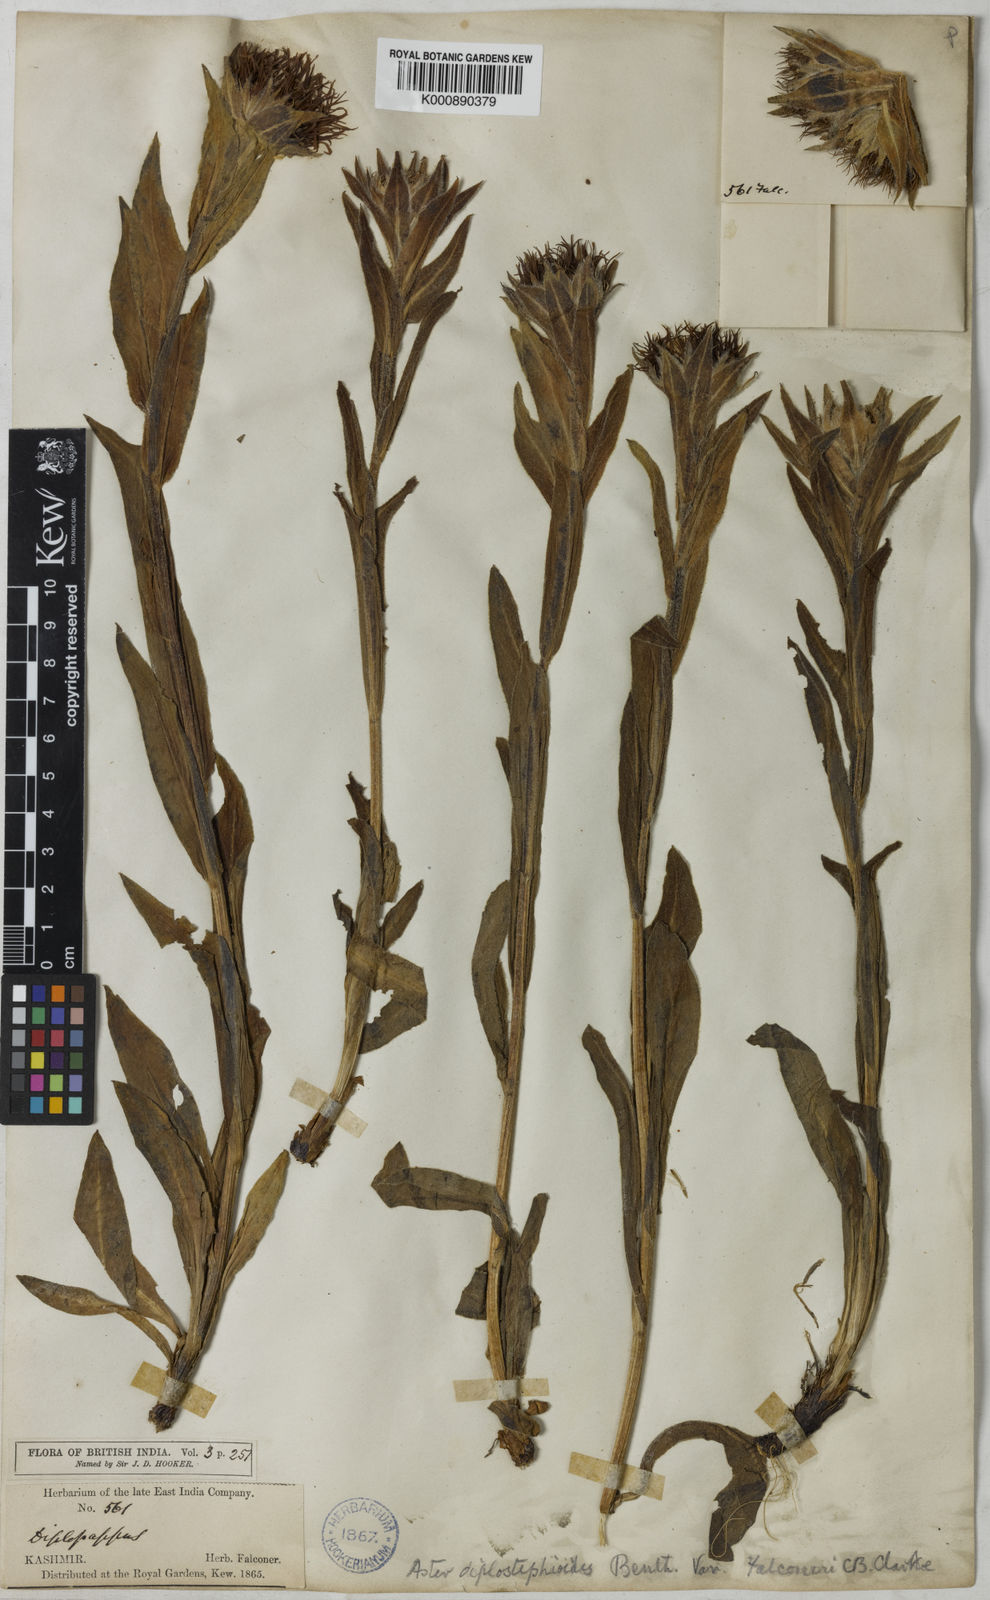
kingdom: Plantae
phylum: Tracheophyta
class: Magnoliopsida
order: Asterales
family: Asteraceae
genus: Tibetiodes
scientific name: Tibetiodes falconeri
